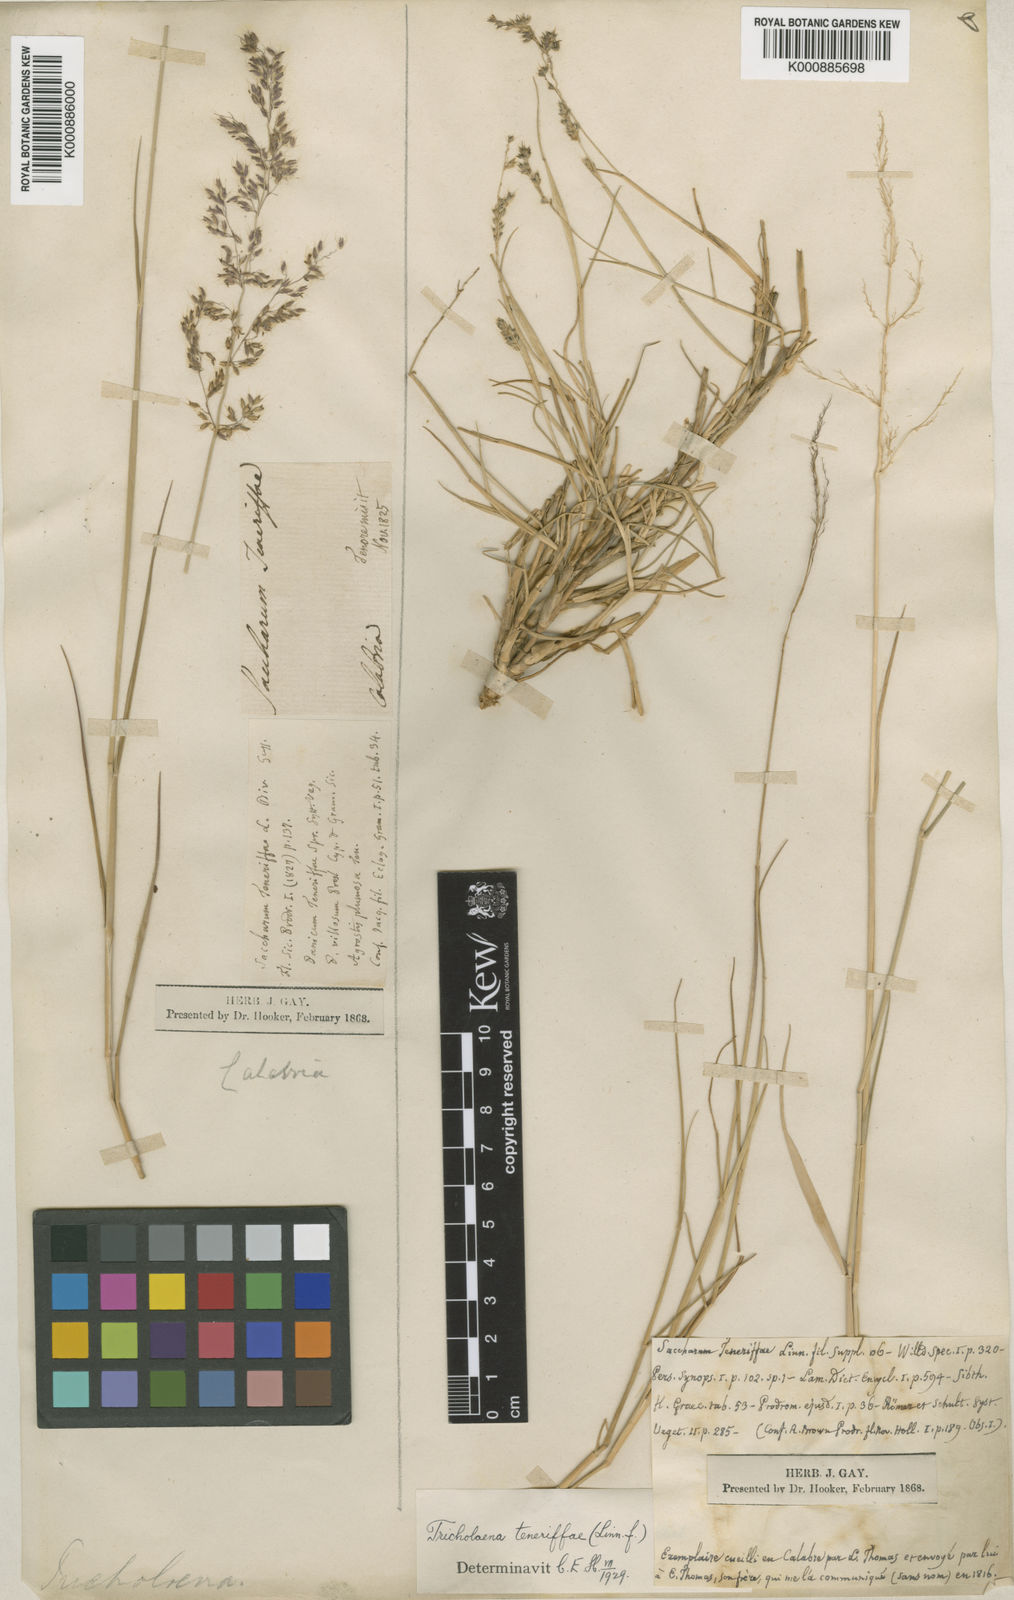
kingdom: Plantae
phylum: Tracheophyta
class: Liliopsida
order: Poales
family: Poaceae
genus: Tricholaena
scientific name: Tricholaena teneriffae
